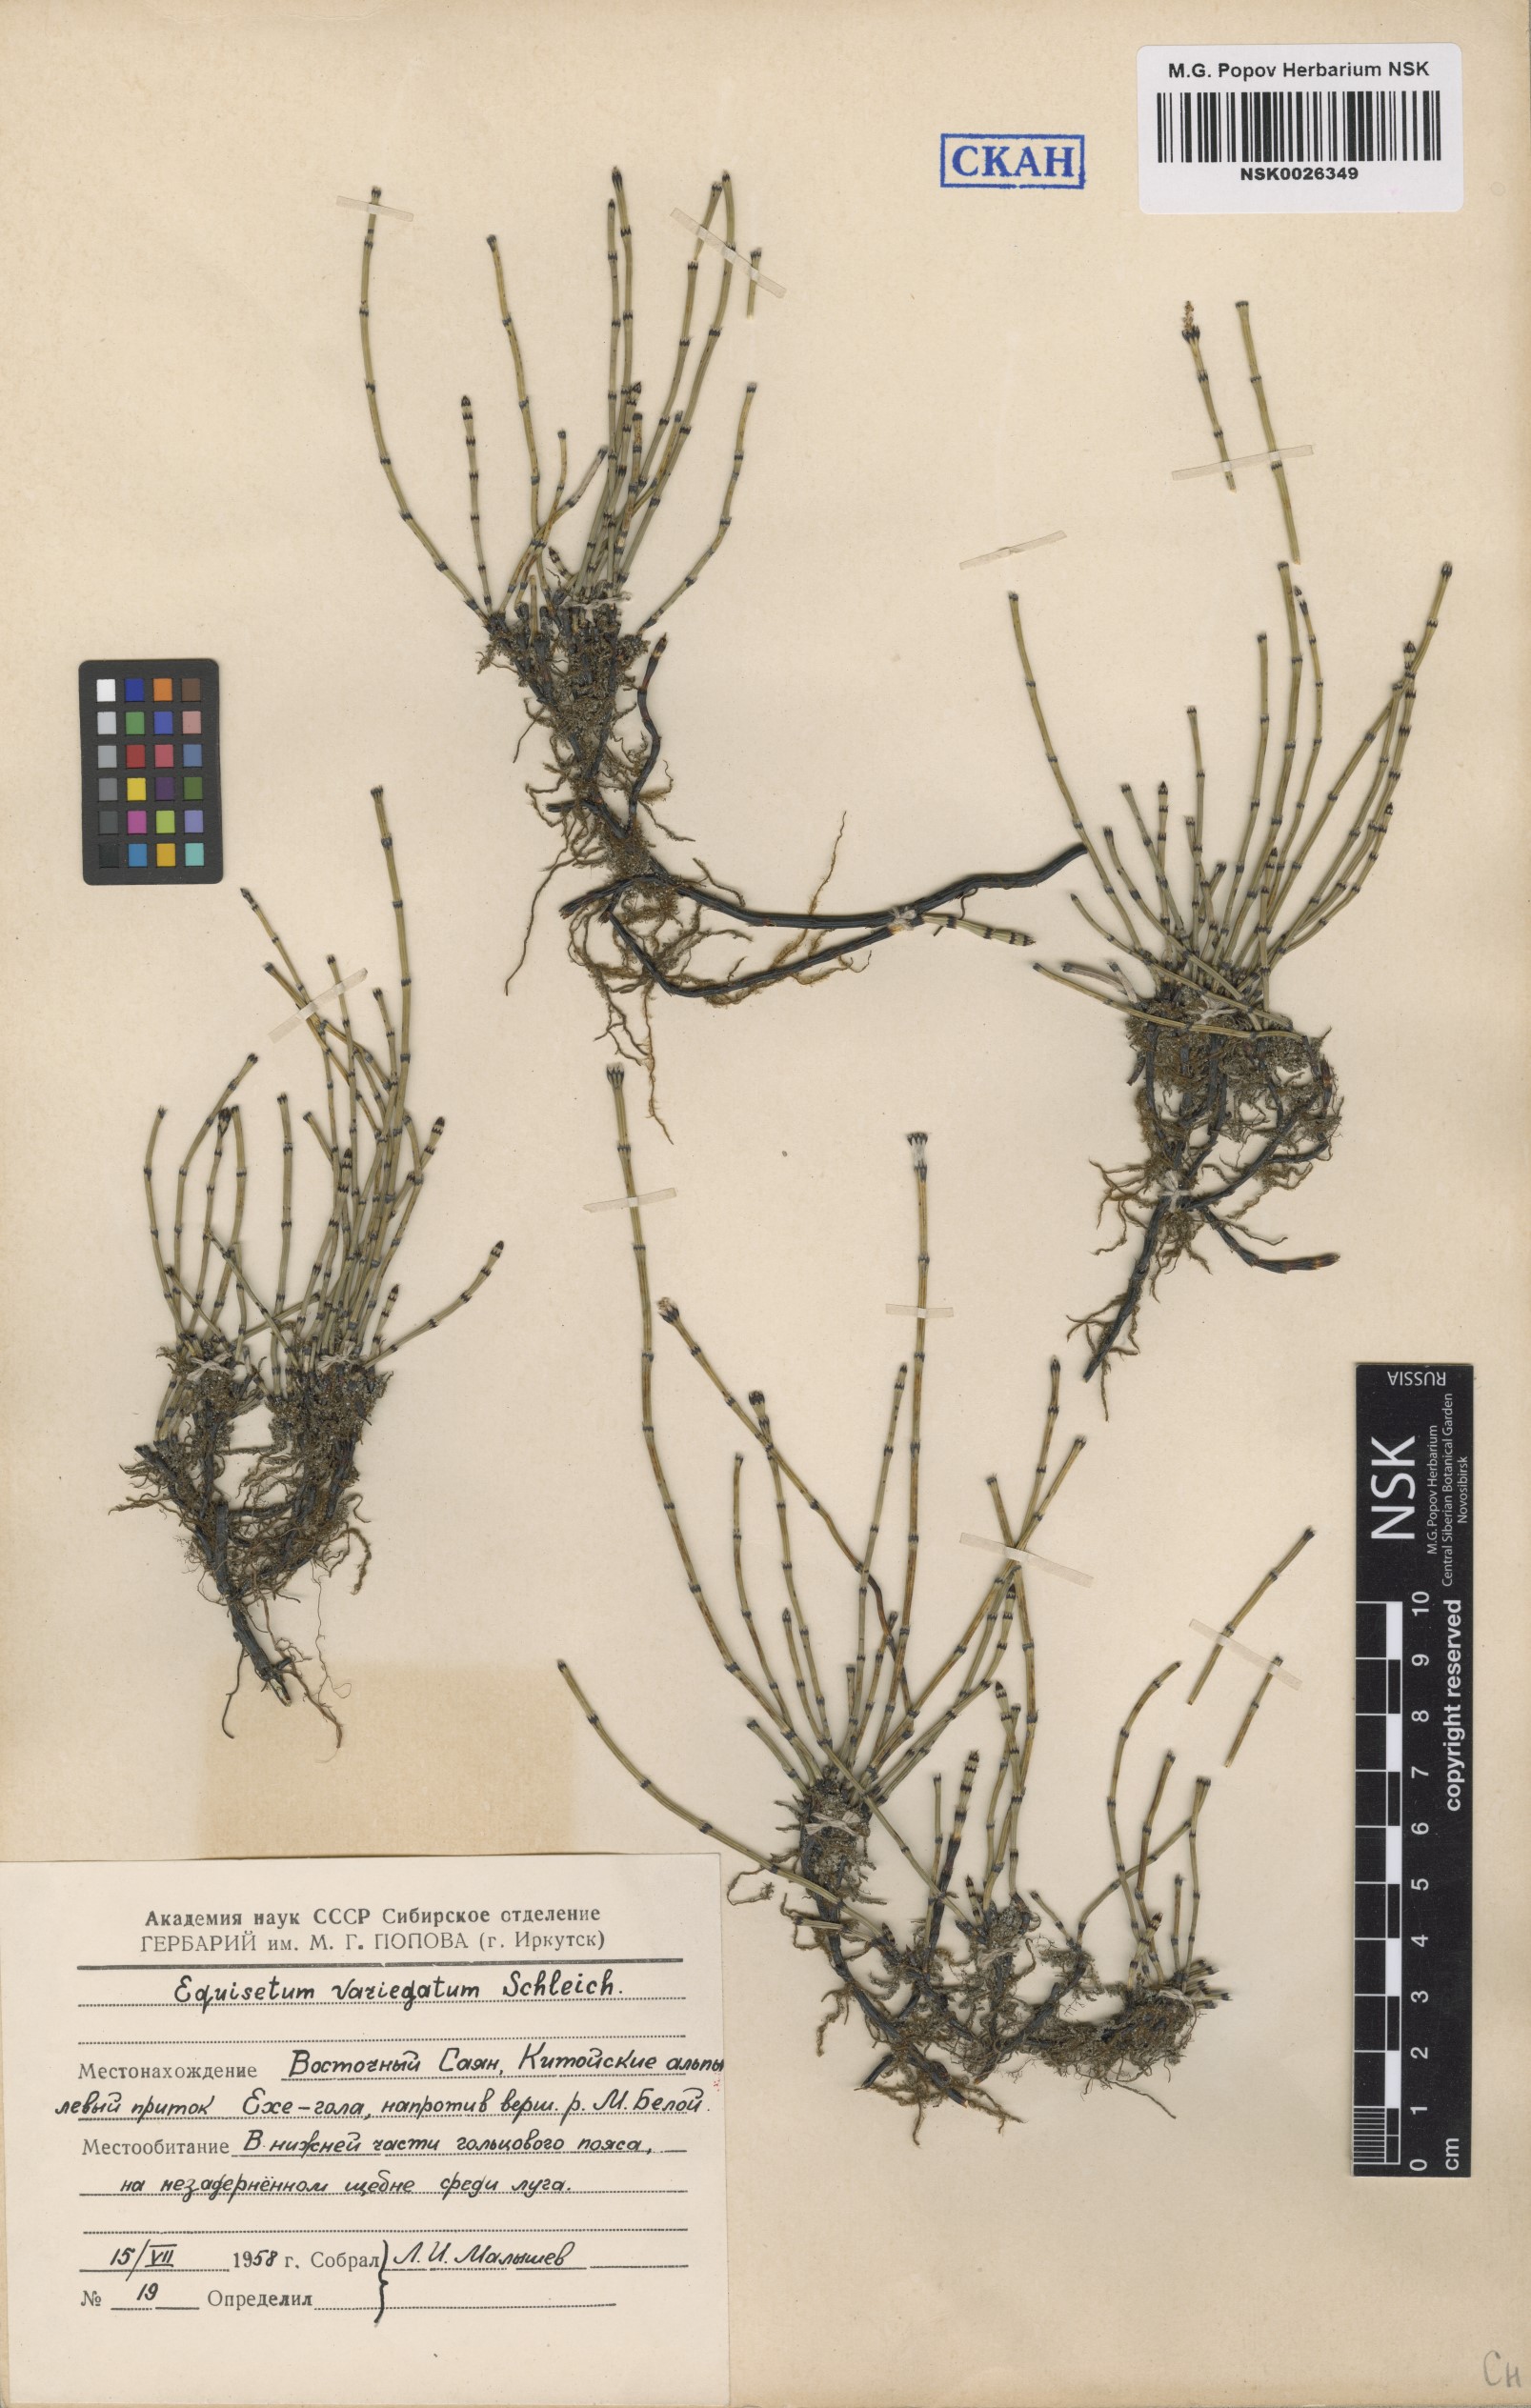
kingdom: Plantae
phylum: Tracheophyta
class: Polypodiopsida
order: Equisetales
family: Equisetaceae
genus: Equisetum
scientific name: Equisetum variegatum
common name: Variegated horsetail
